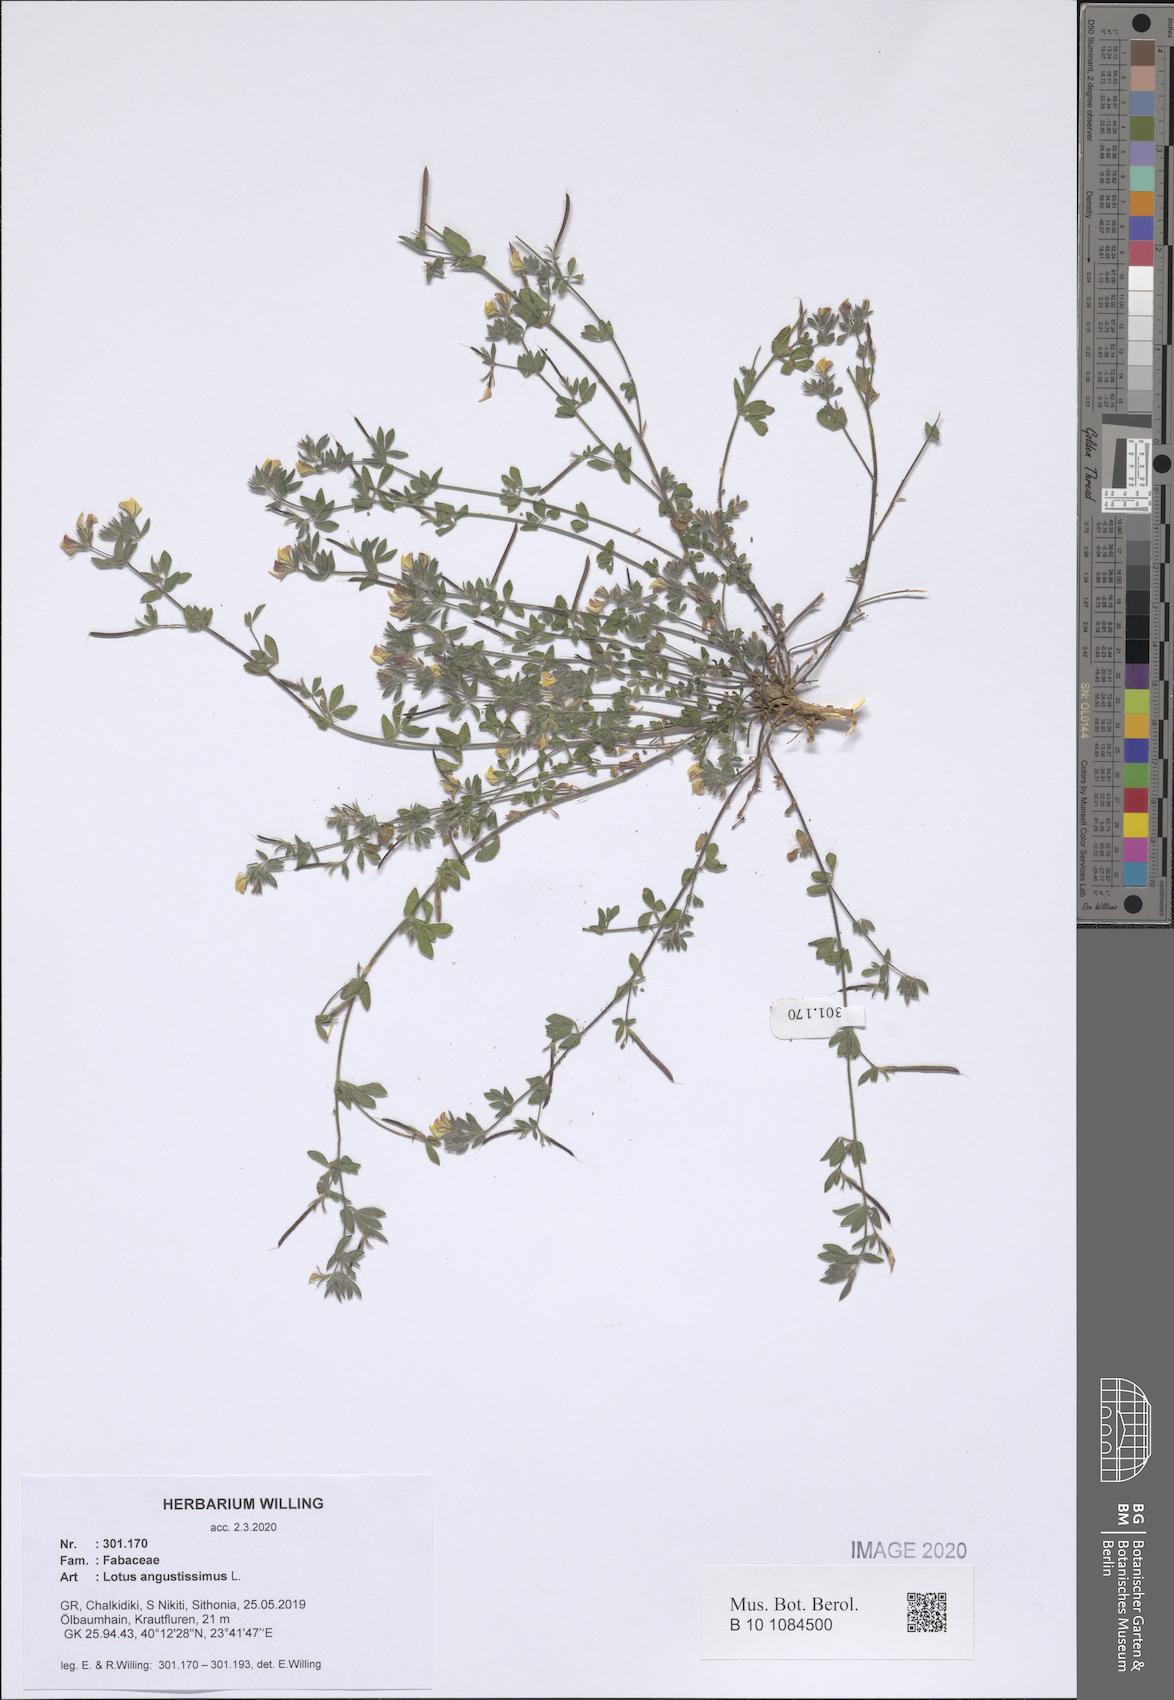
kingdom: Plantae
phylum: Tracheophyta
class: Magnoliopsida
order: Fabales
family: Fabaceae
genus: Lotus
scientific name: Lotus angustissimus
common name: Slender bird's-foot trefoil
